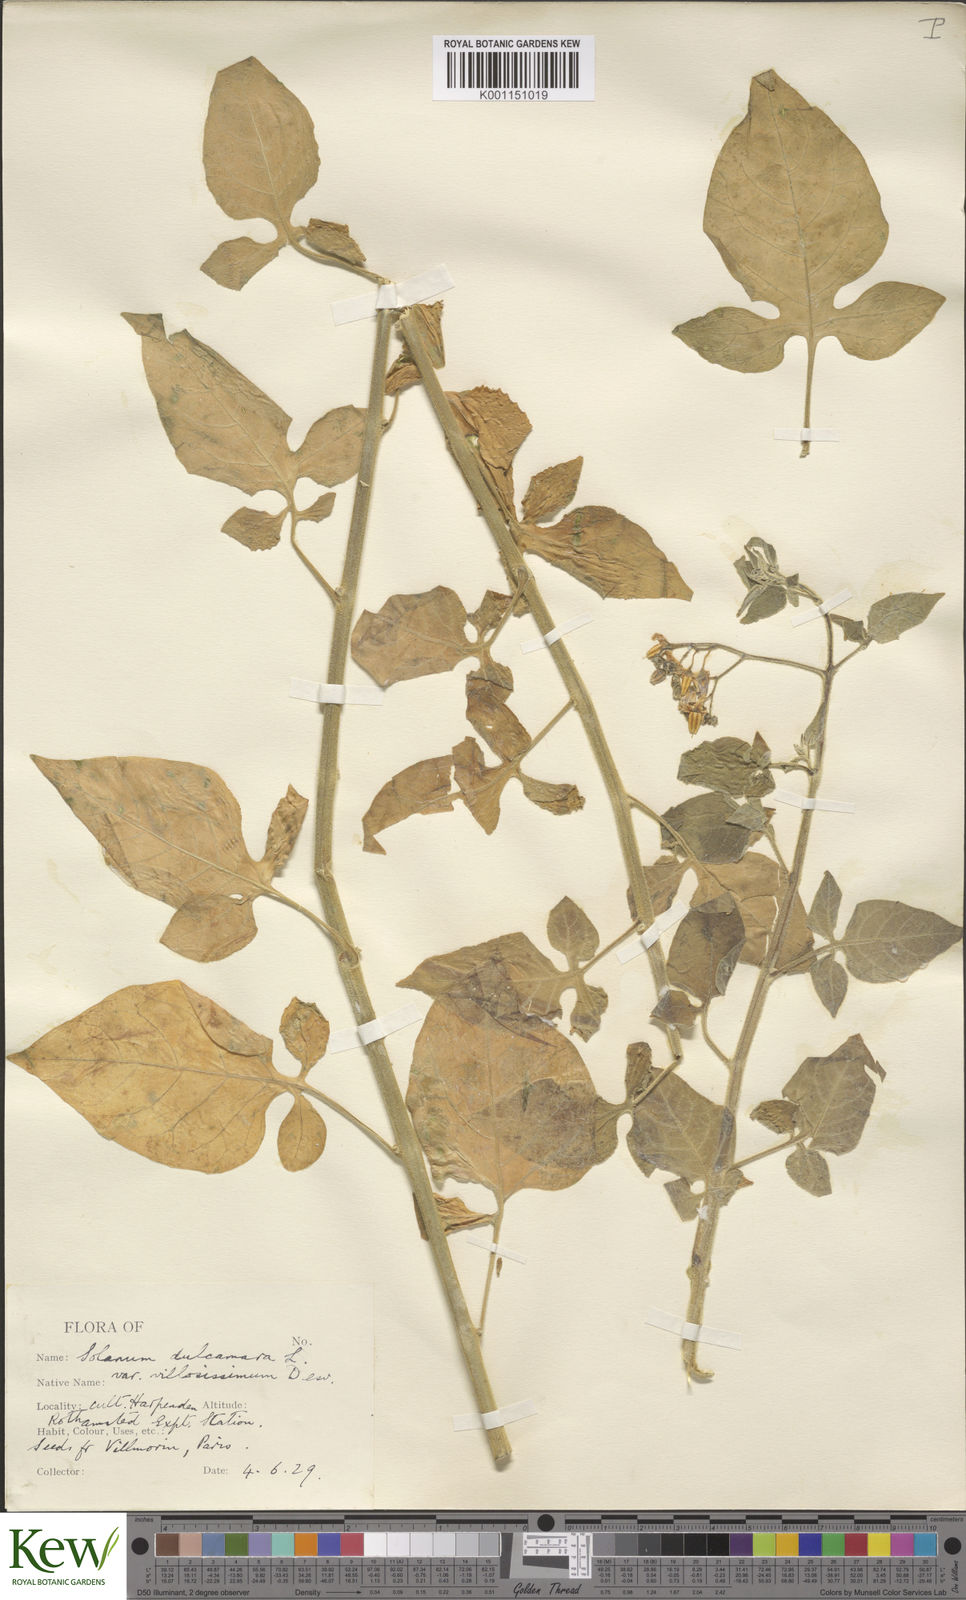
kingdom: Plantae
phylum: Tracheophyta
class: Magnoliopsida
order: Solanales
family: Solanaceae
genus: Solanum
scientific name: Solanum dulcamara
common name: Climbing nightshade
